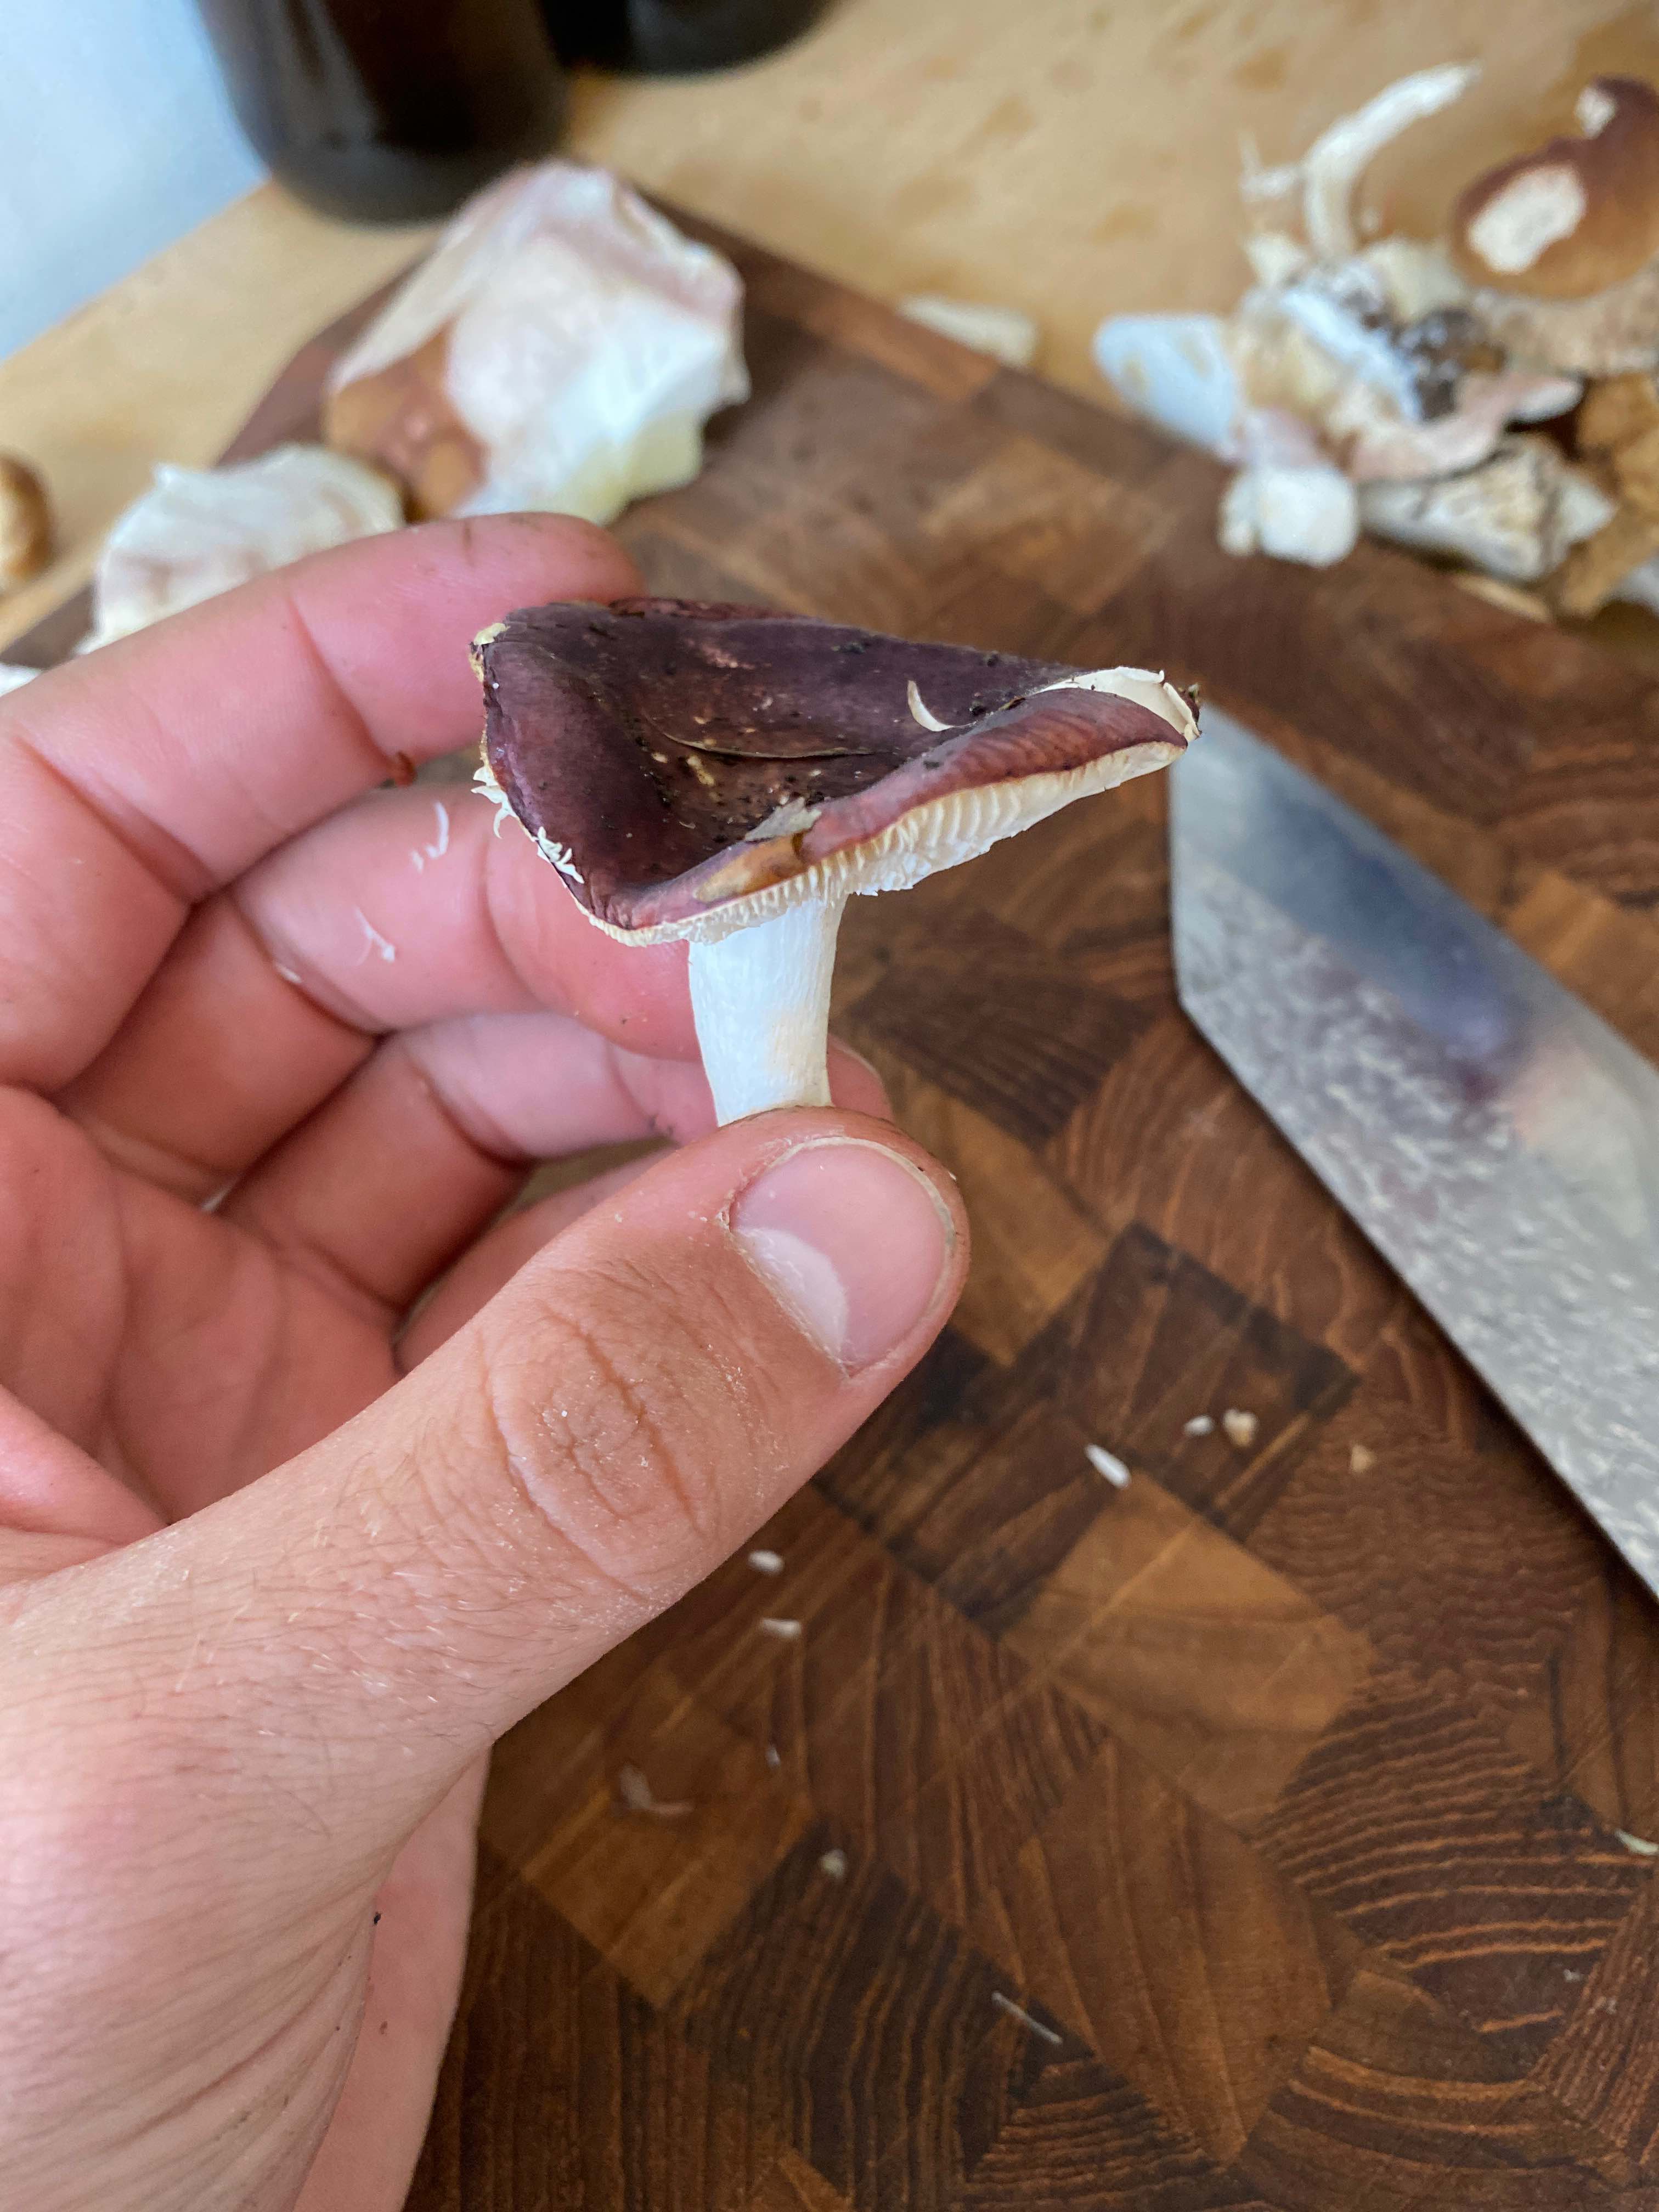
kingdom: Fungi
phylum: Basidiomycota
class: Agaricomycetes
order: Russulales
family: Russulaceae
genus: Russula
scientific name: Russula
